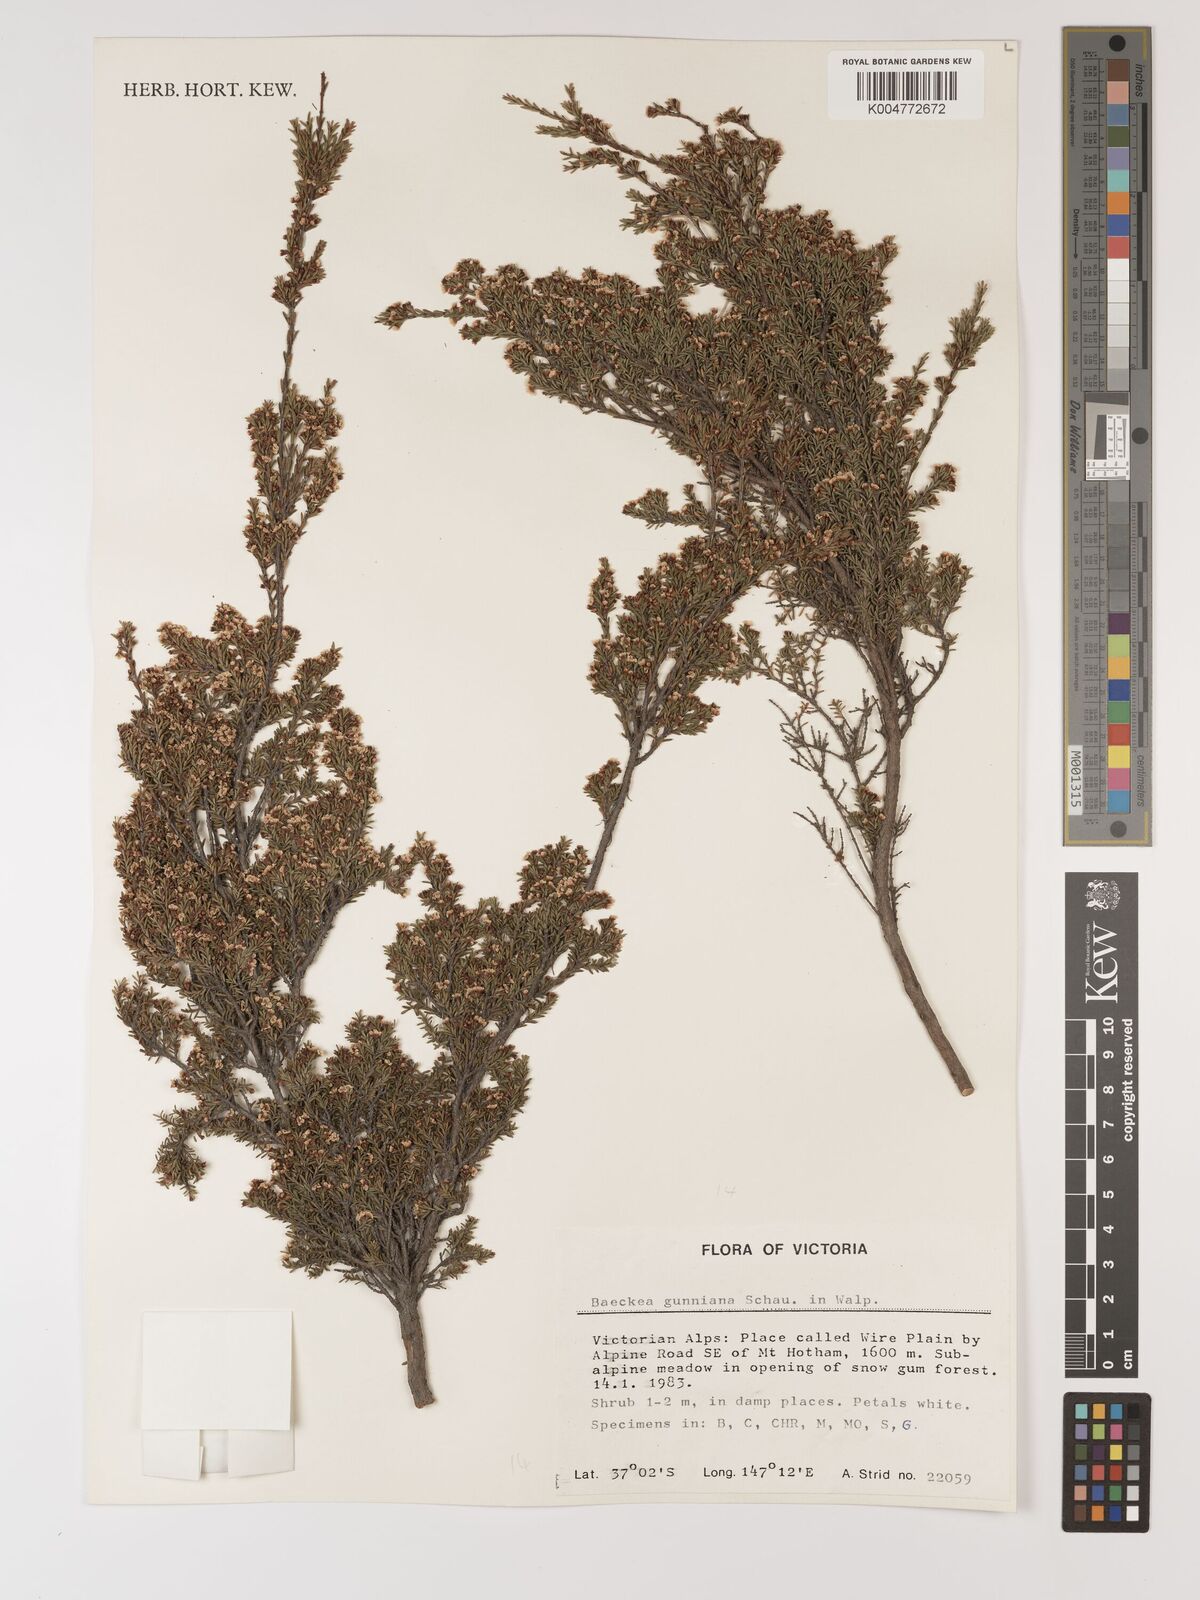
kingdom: Plantae
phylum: Tracheophyta
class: Magnoliopsida
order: Myrtales
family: Myrtaceae
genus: Baeckea
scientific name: Baeckea gunniana
